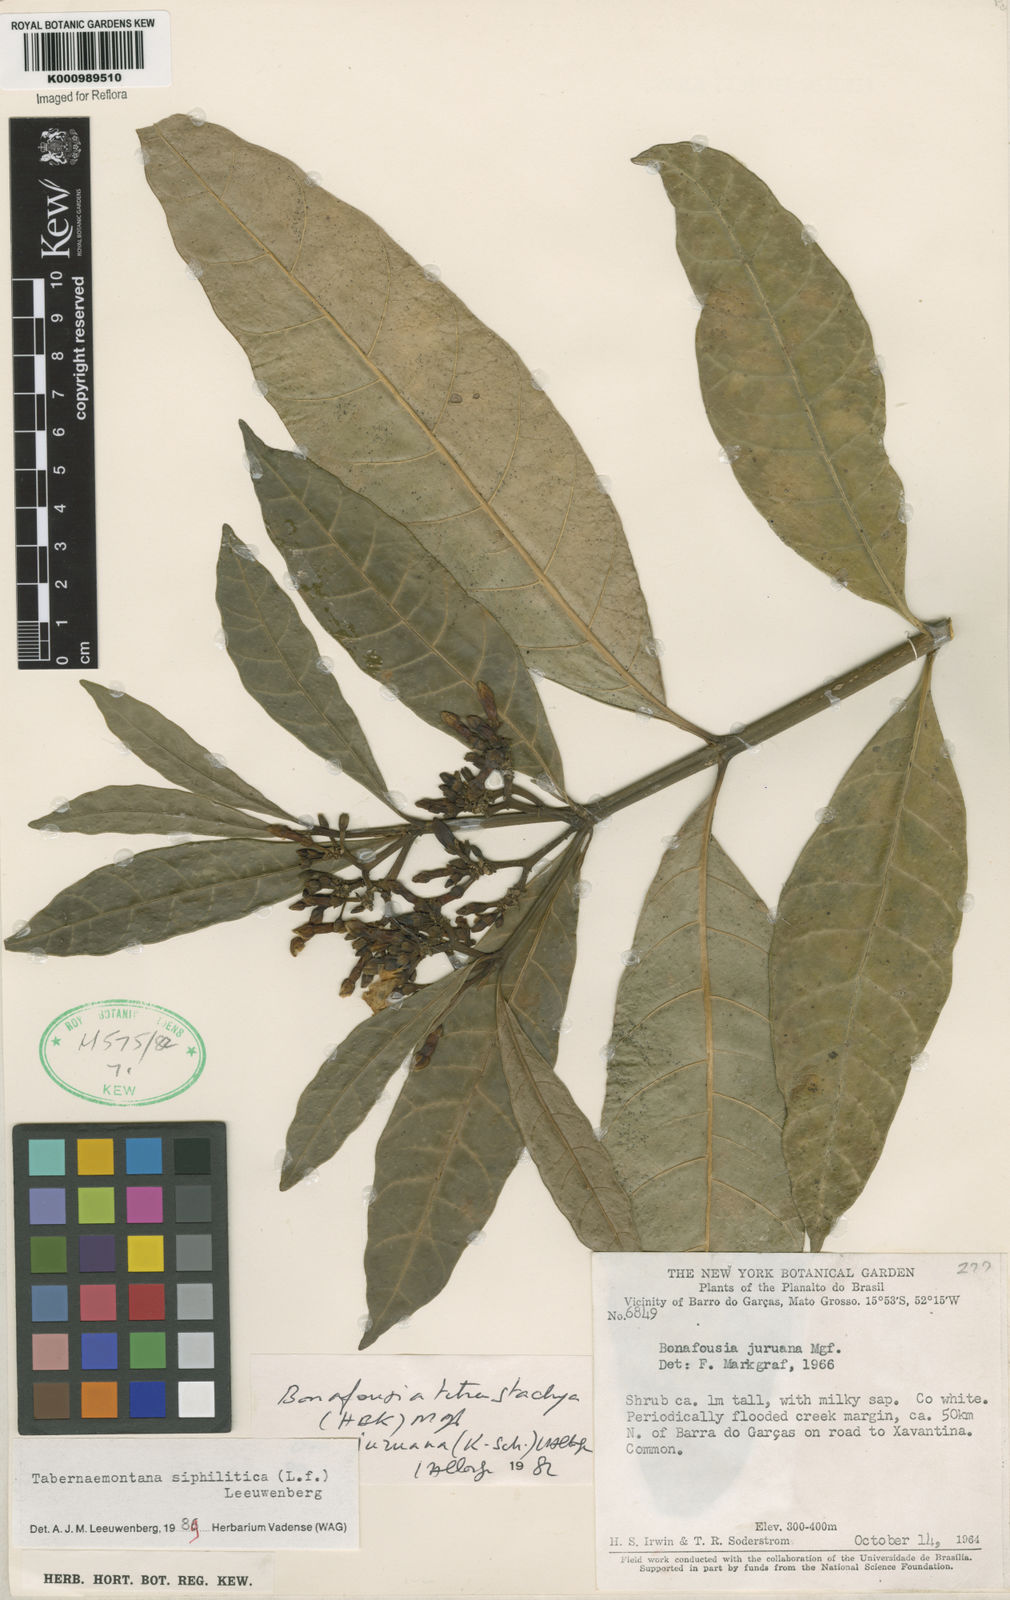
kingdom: Plantae
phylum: Tracheophyta
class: Magnoliopsida
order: Gentianales
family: Apocynaceae
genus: Tabernaemontana
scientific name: Tabernaemontana siphilitica
